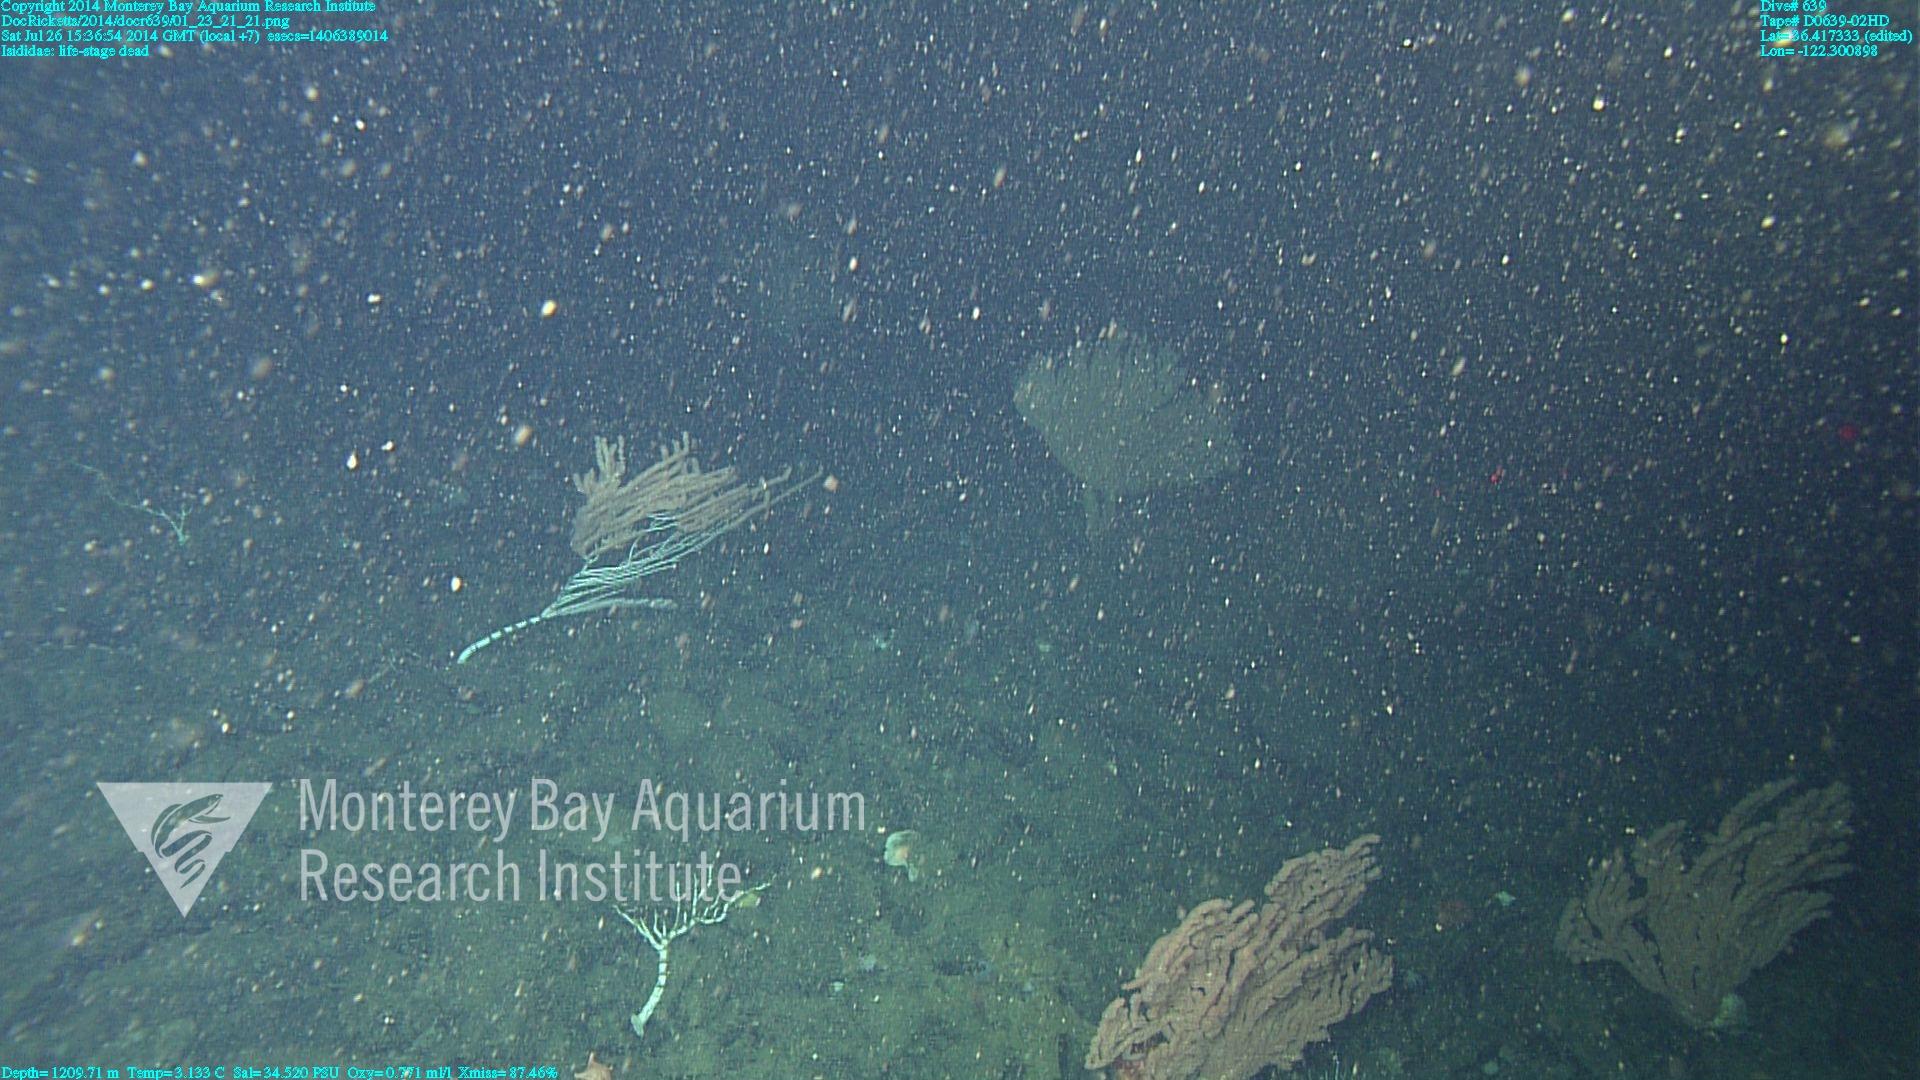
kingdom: Animalia
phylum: Cnidaria
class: Anthozoa
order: Scleralcyonacea
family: Keratoisididae
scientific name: Keratoisididae
